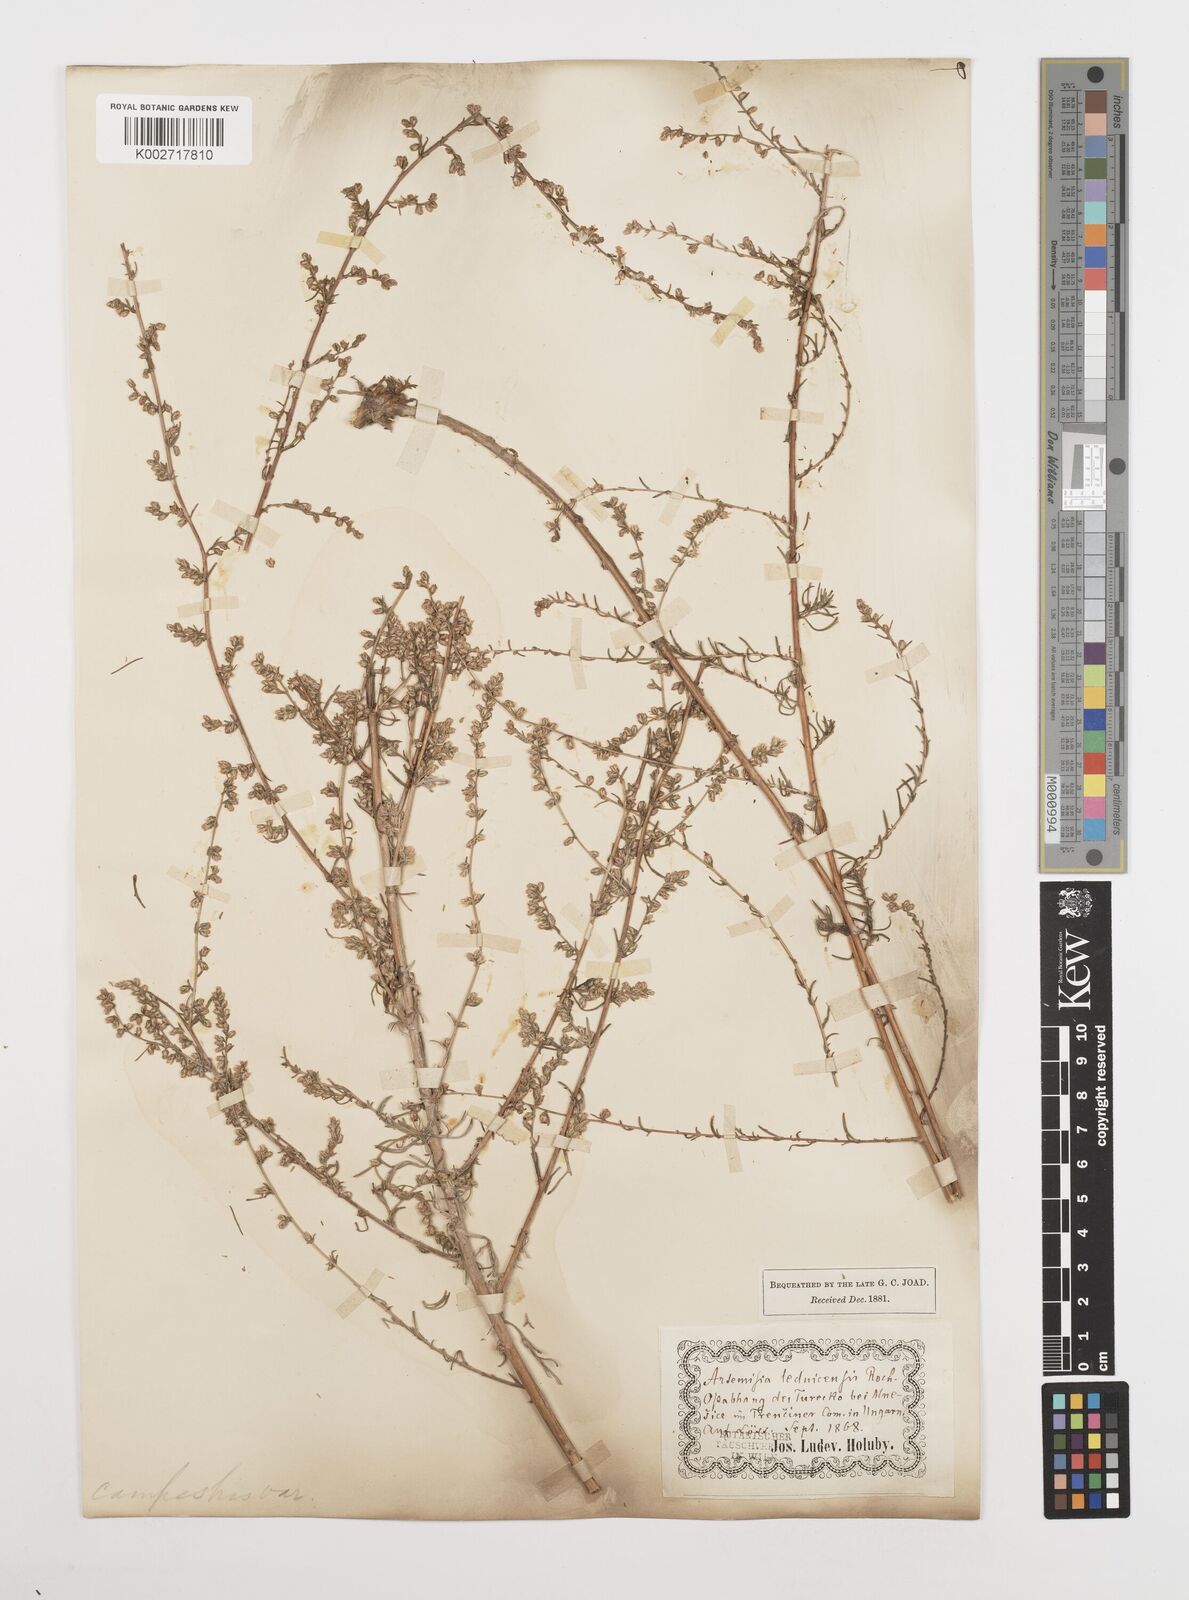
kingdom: Plantae
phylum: Tracheophyta
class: Magnoliopsida
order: Asterales
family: Asteraceae
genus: Artemisia
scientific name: Artemisia campestris
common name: Field wormwood
